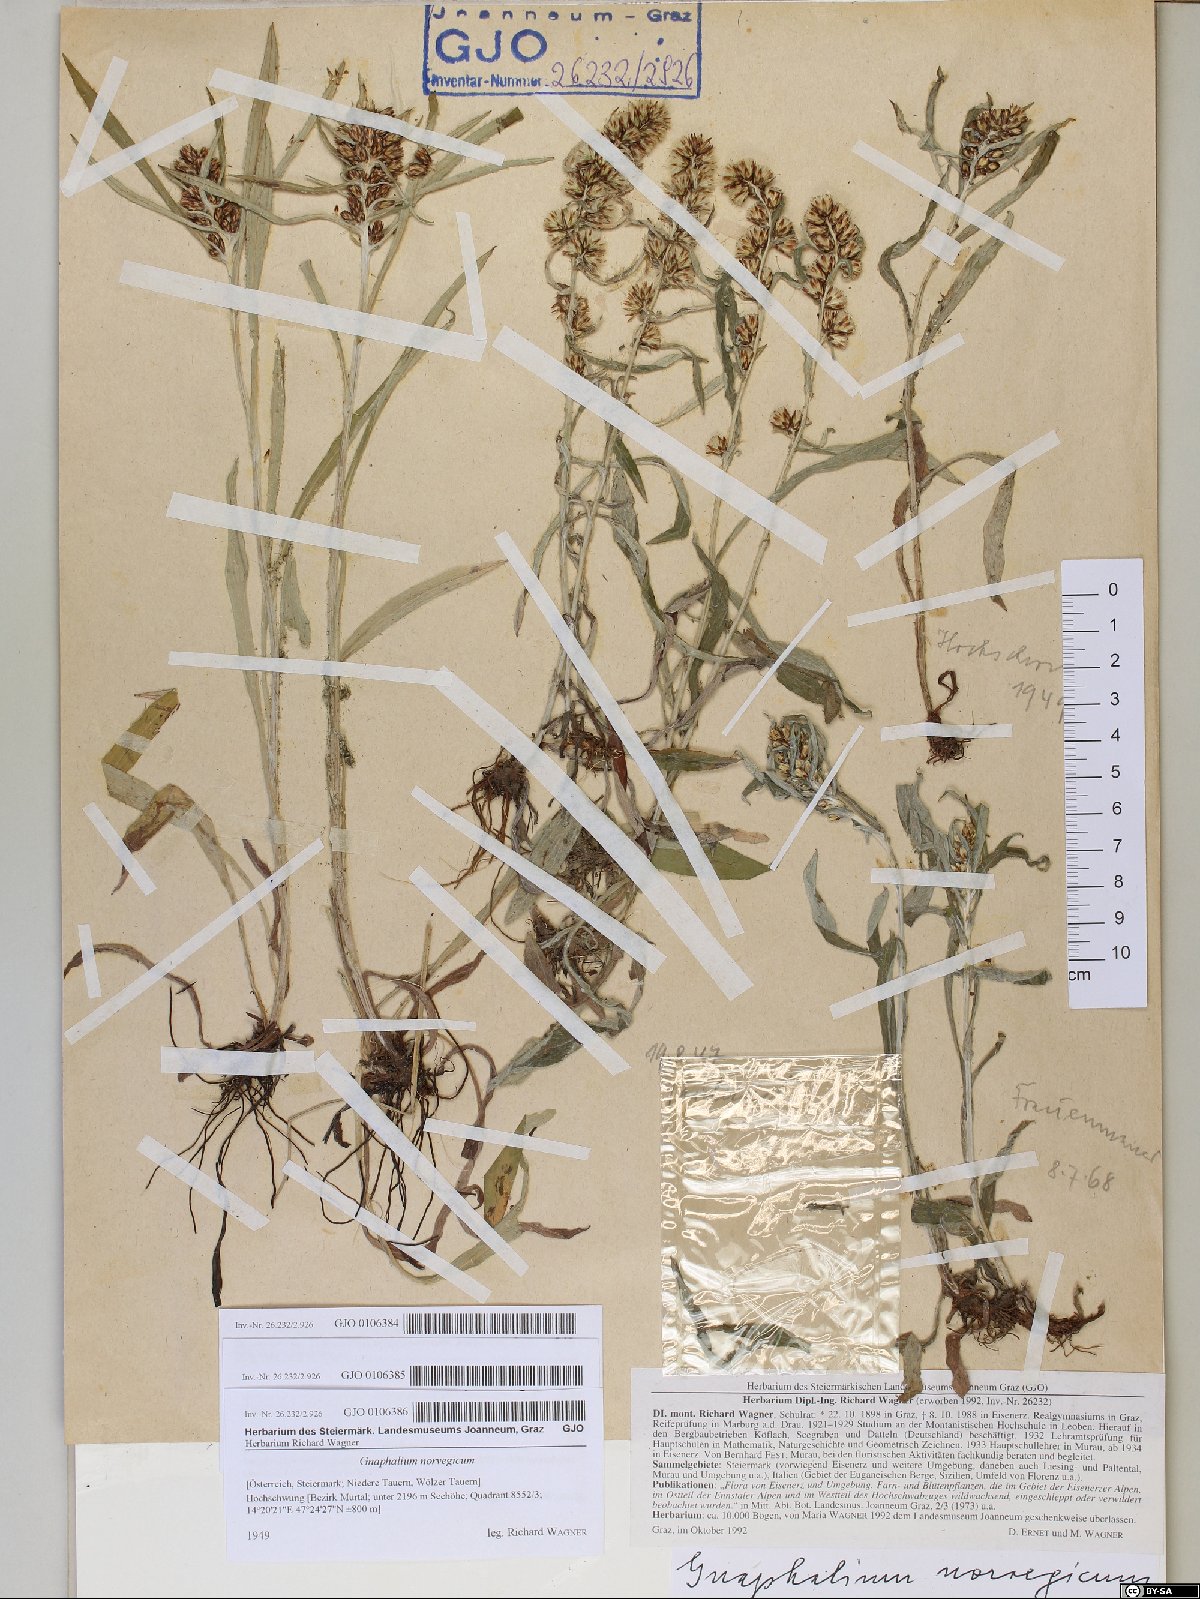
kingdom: Plantae
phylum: Tracheophyta
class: Magnoliopsida
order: Asterales
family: Asteraceae
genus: Omalotheca
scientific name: Omalotheca norvegica
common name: Norwegian arctic-cudweed
